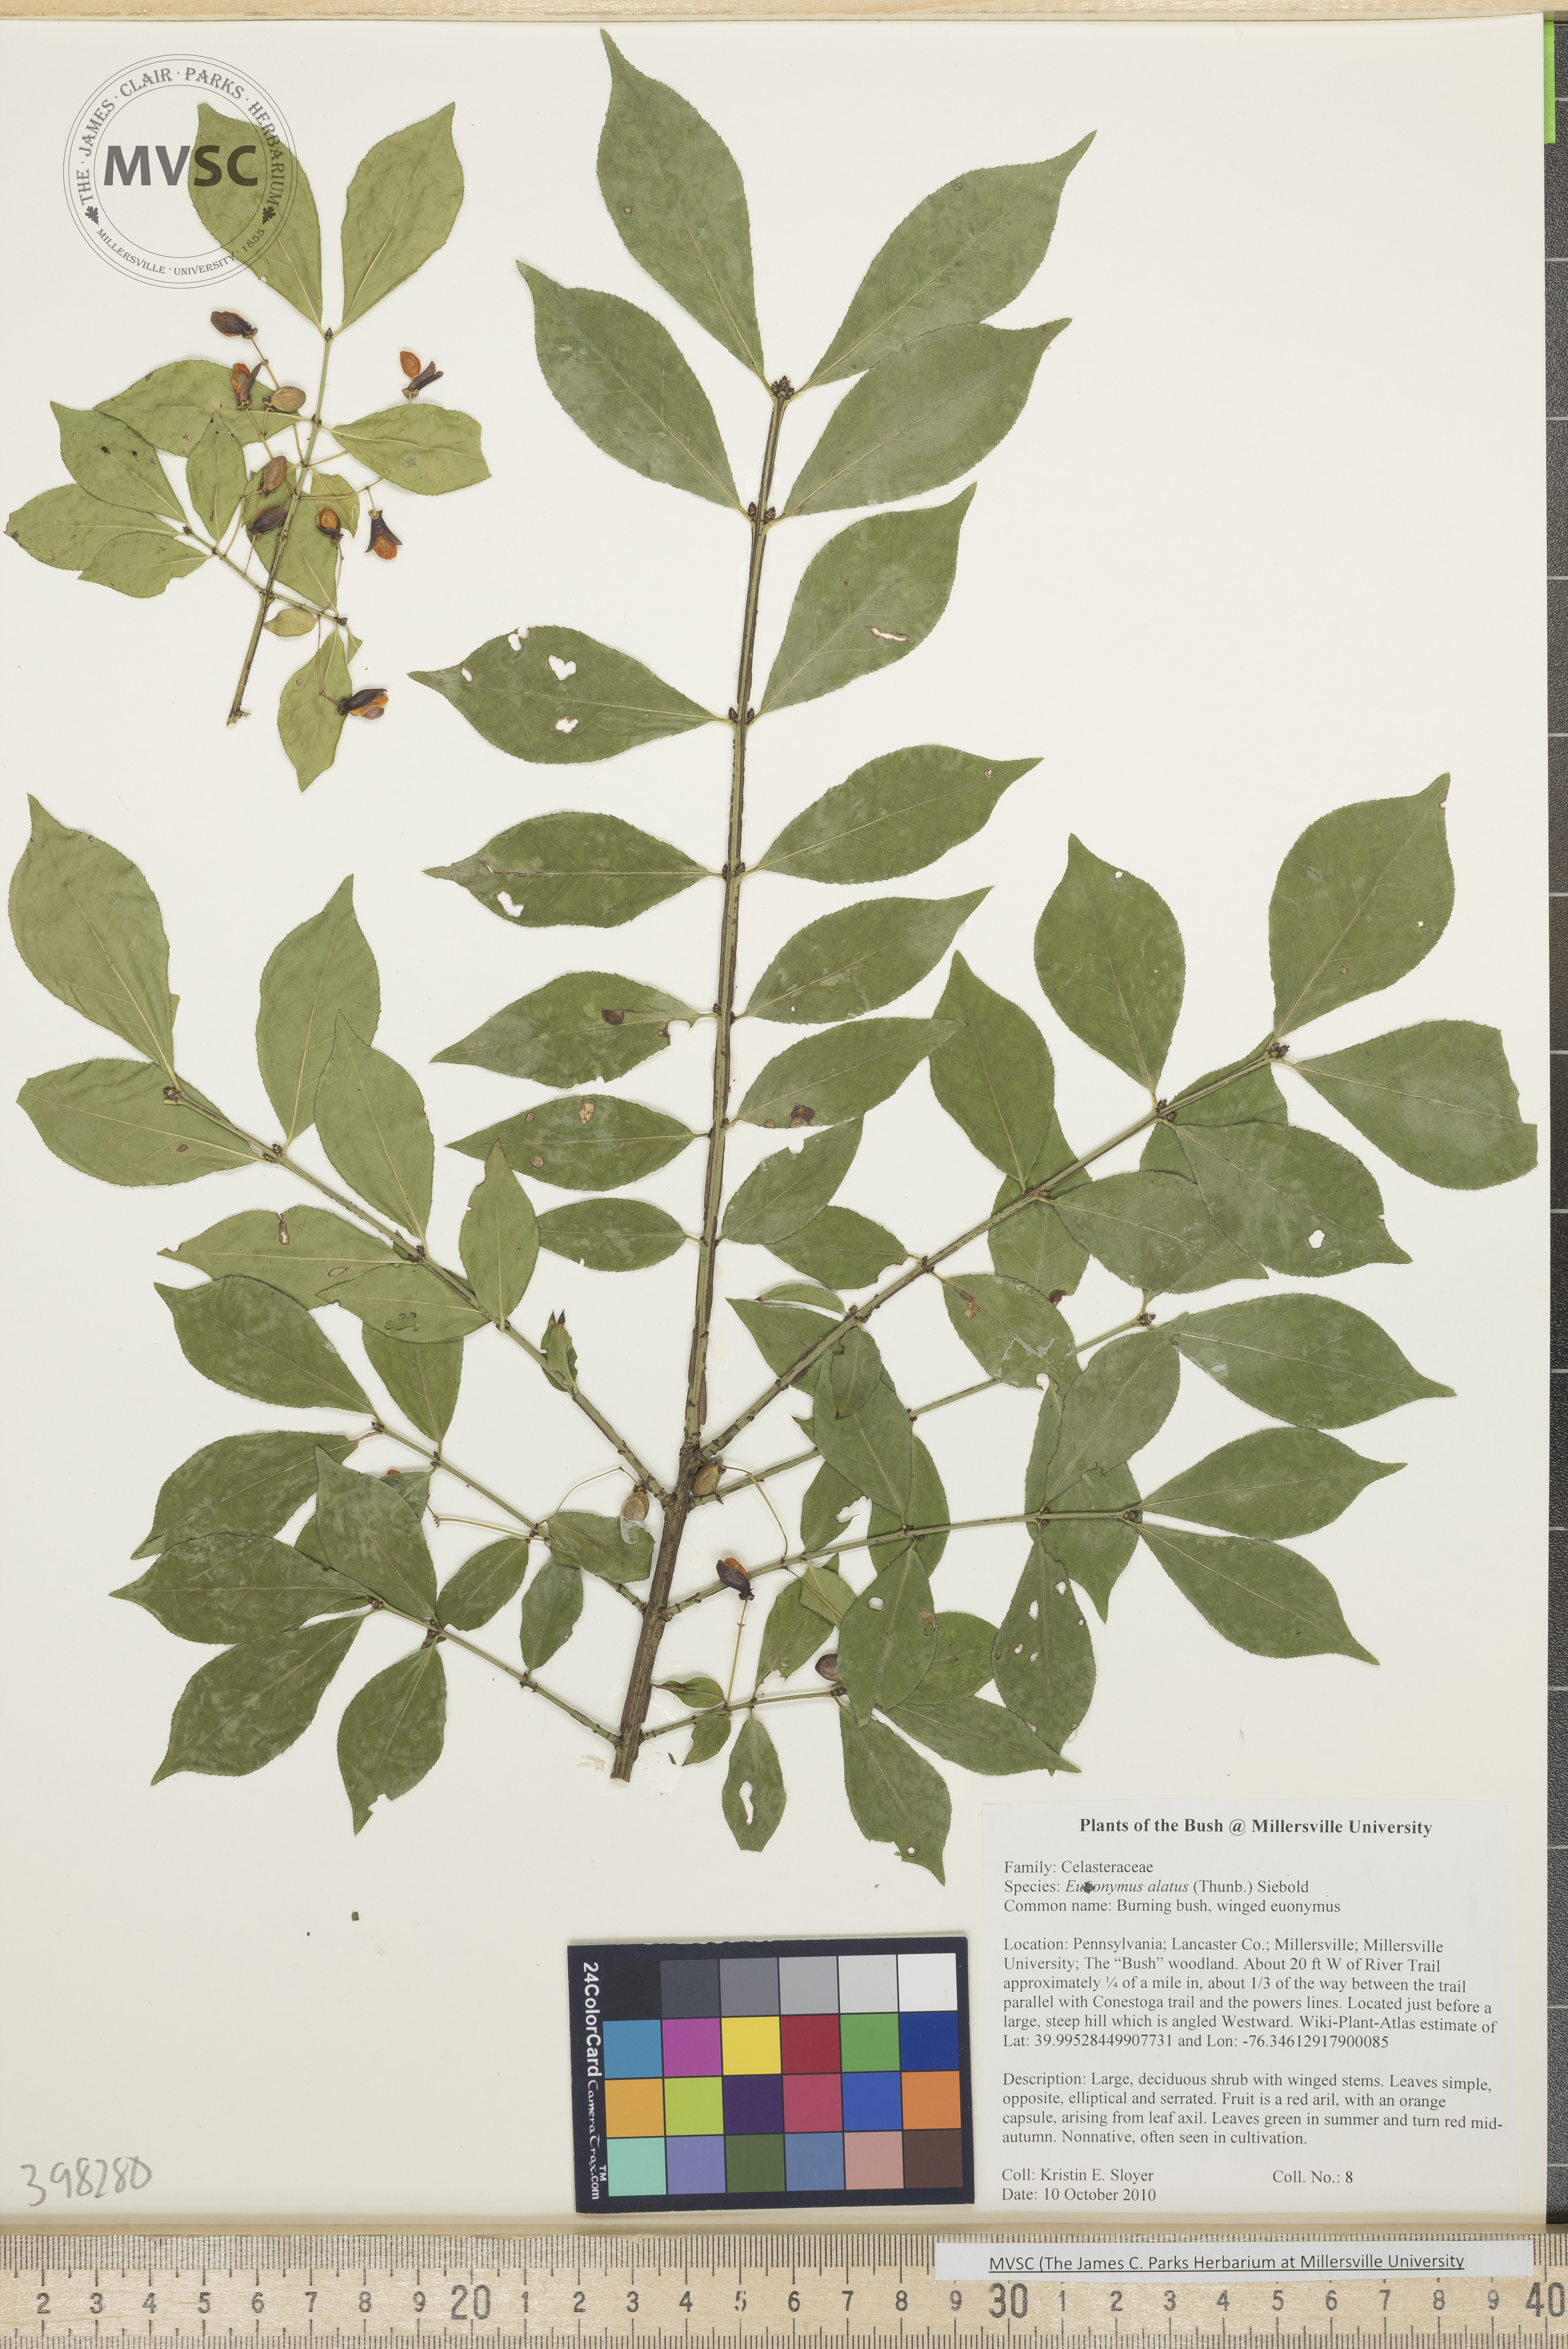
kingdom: Plantae
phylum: Tracheophyta
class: Magnoliopsida
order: Celastrales
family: Celastraceae
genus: Euonymus
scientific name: Euonymus alatus
